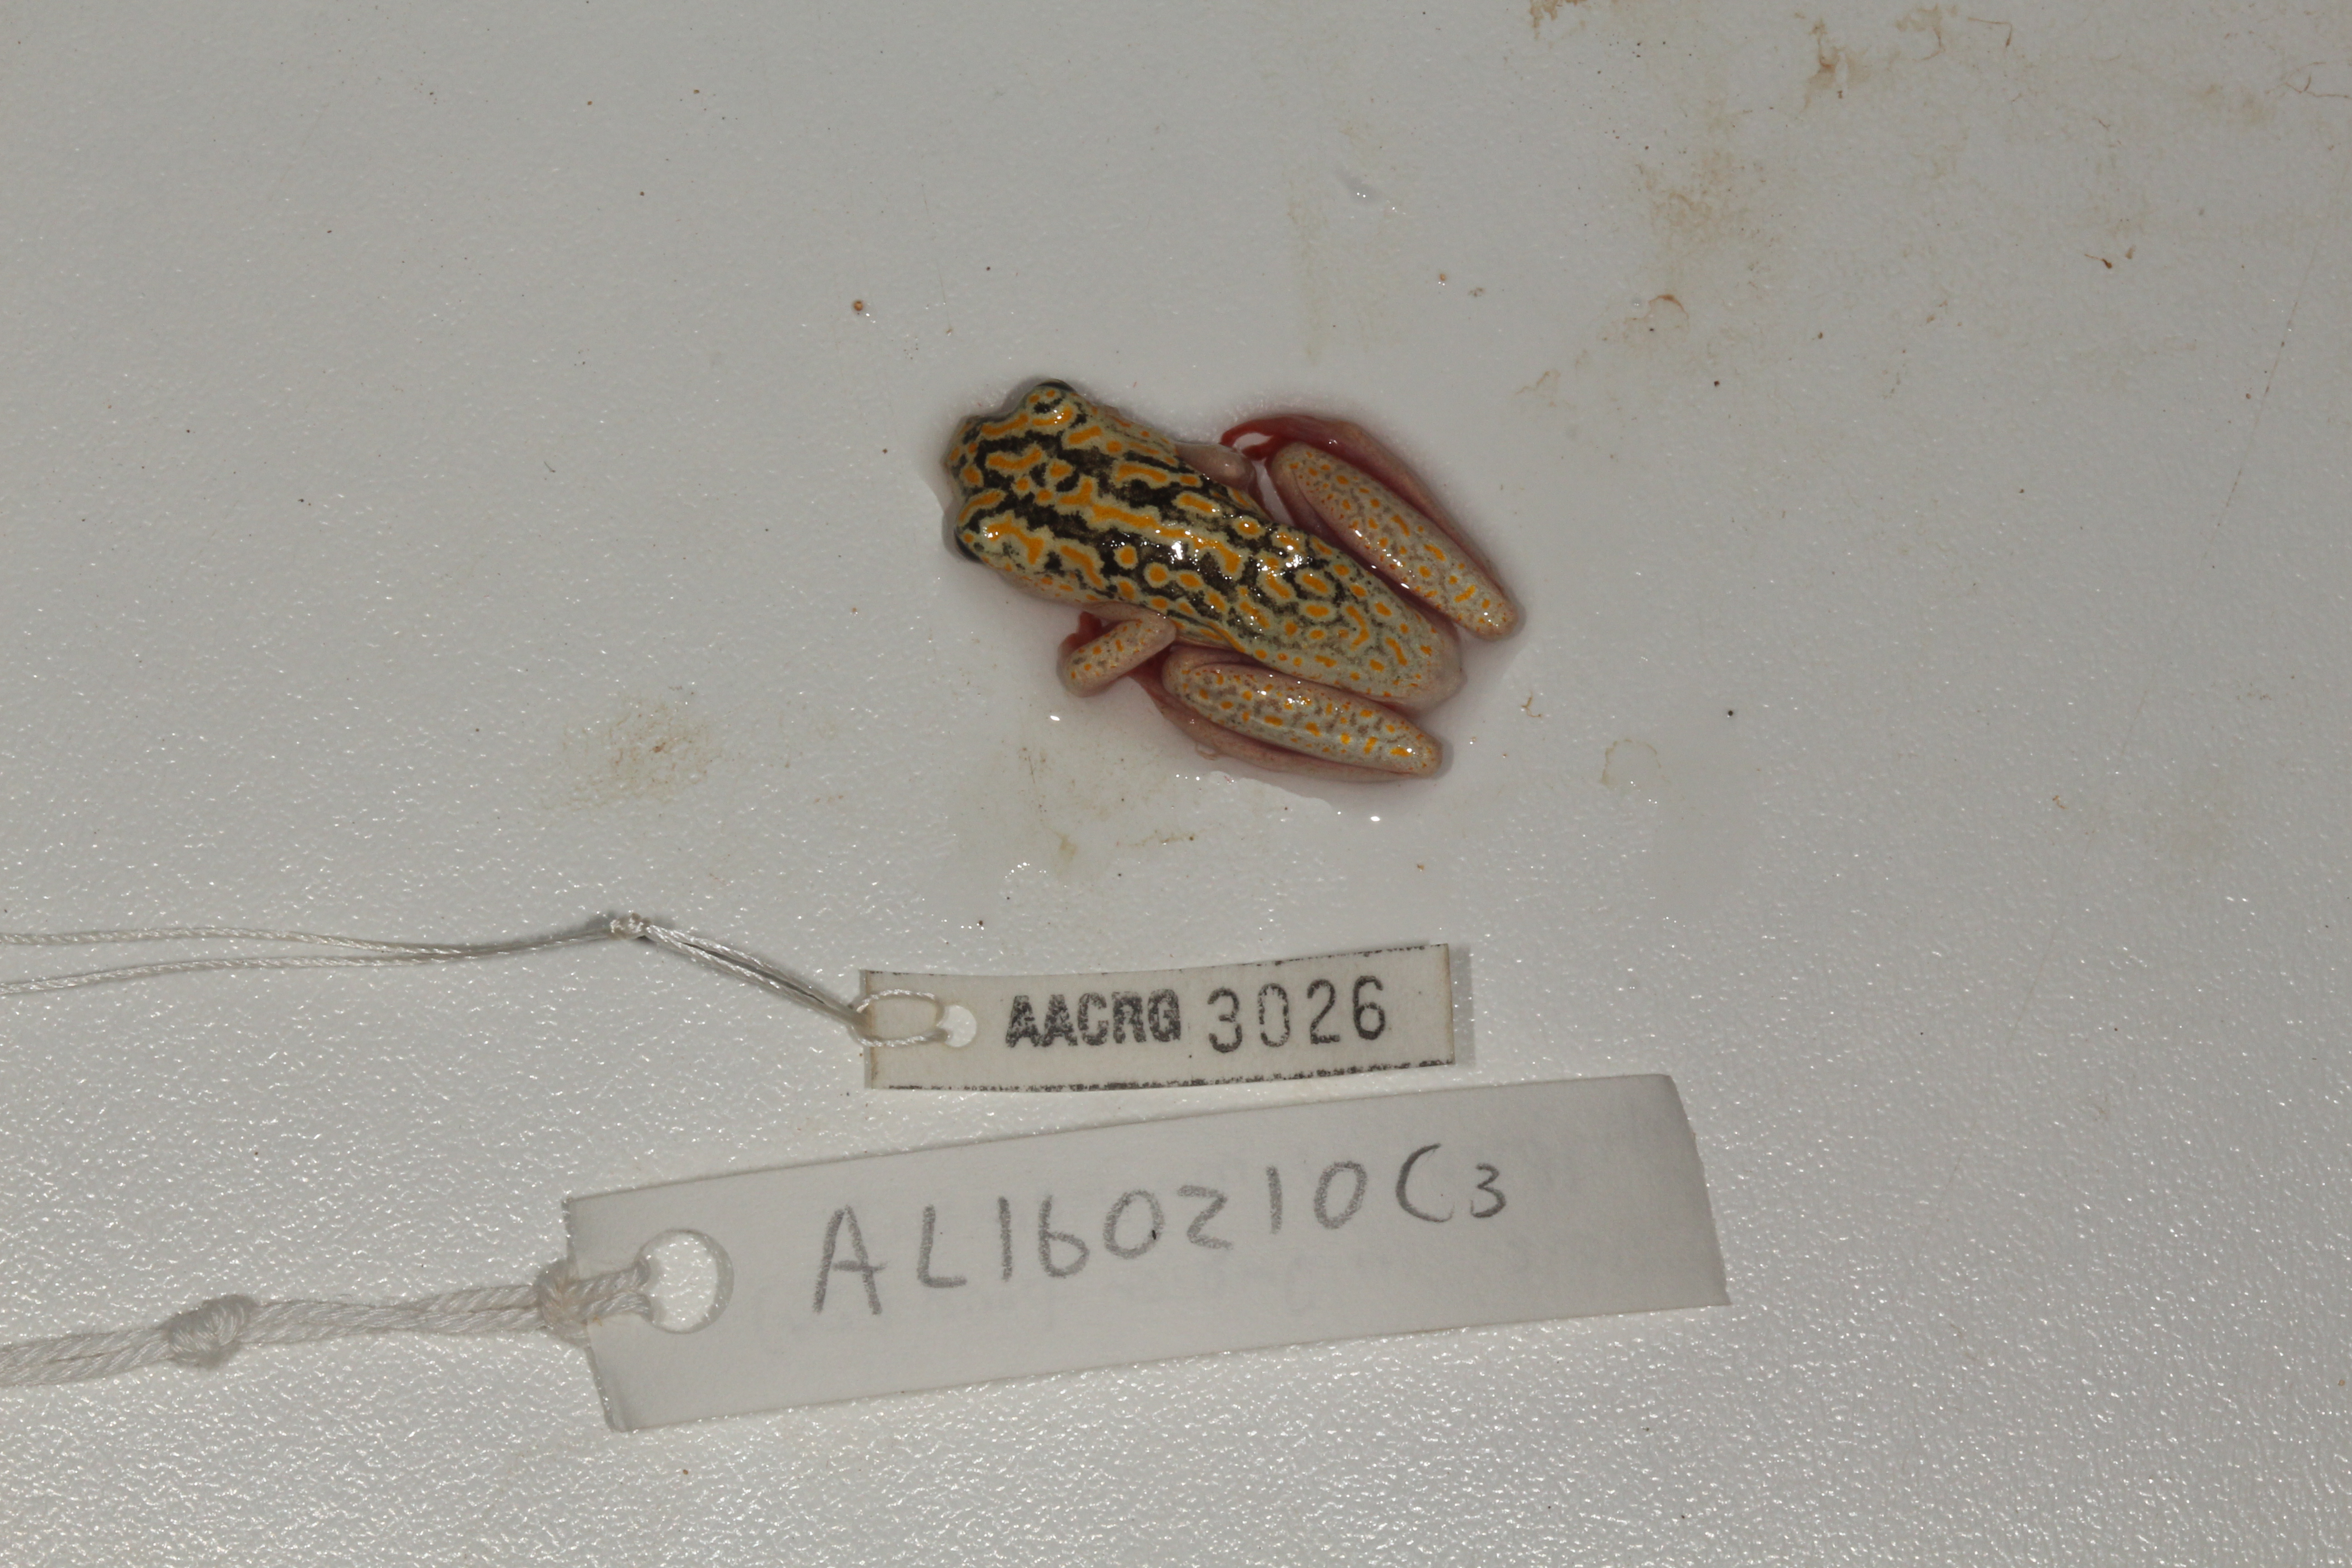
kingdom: Animalia
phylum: Chordata
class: Amphibia
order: Anura
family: Hyperoliidae
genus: Hyperolius
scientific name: Hyperolius marmoratus
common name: Painted reed frog
